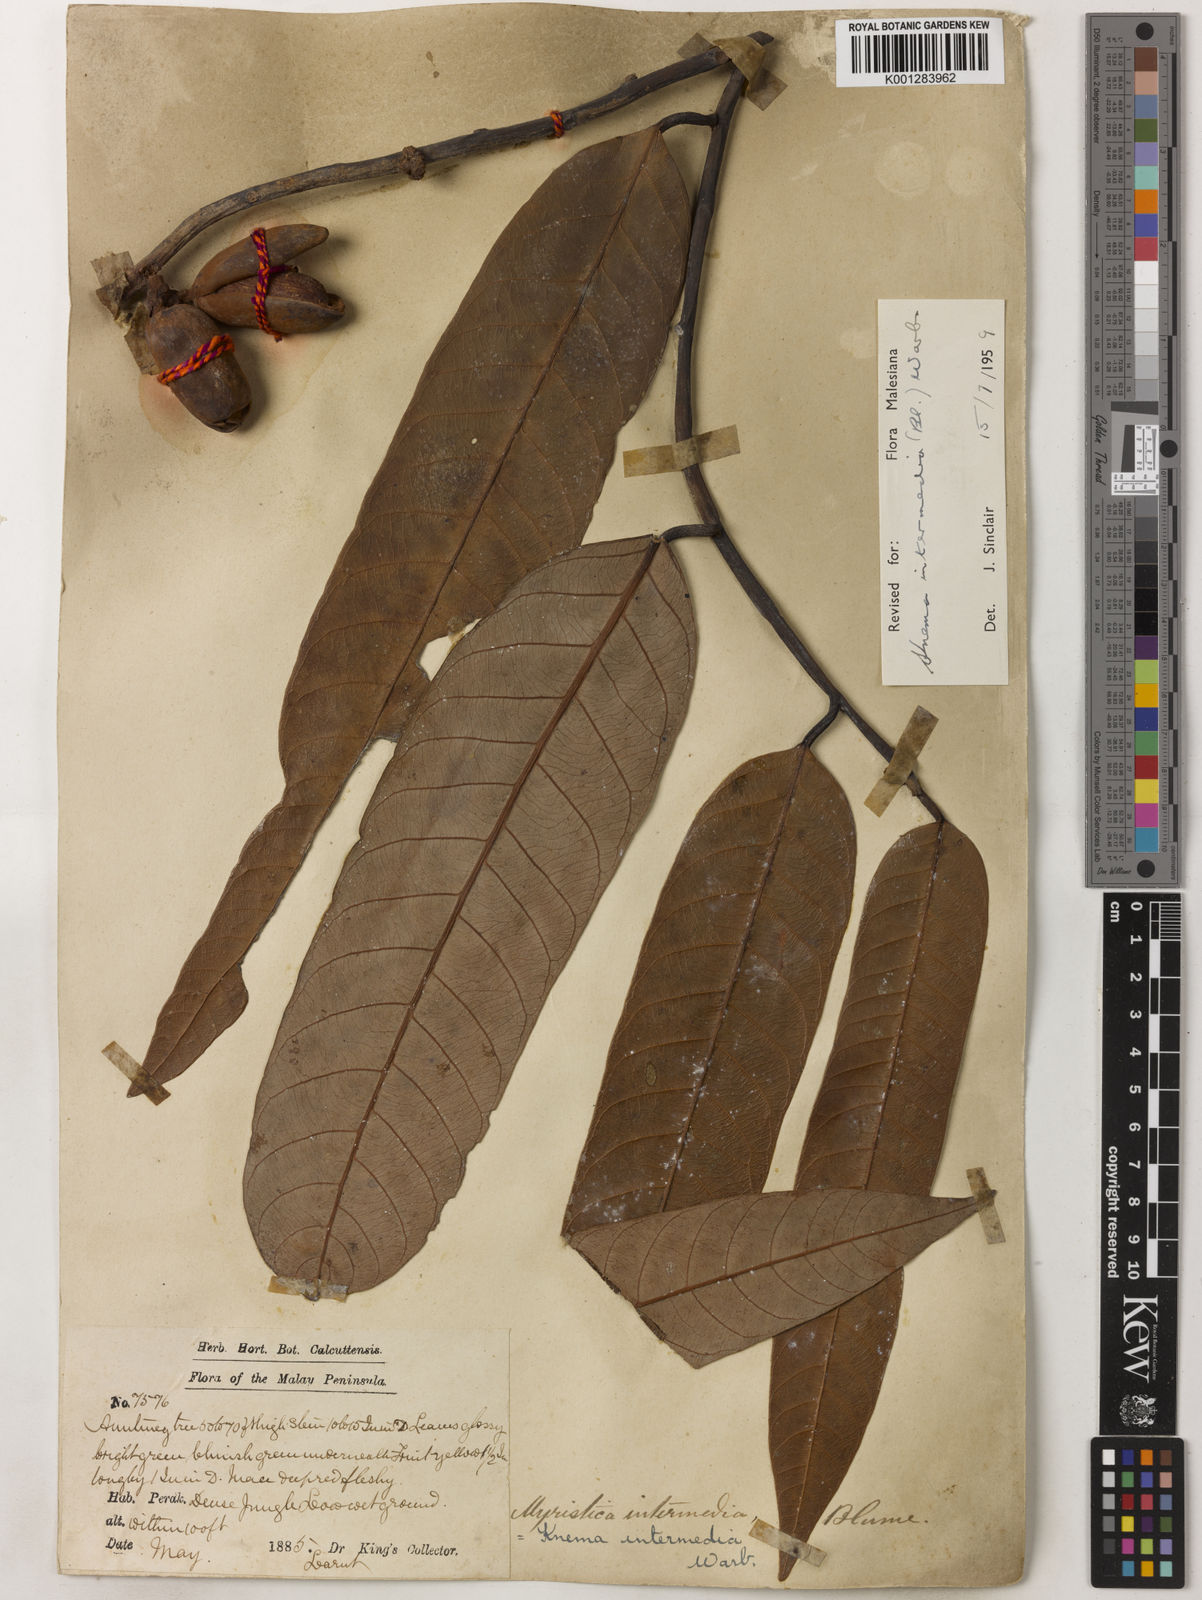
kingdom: Plantae
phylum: Tracheophyta
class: Magnoliopsida
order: Magnoliales
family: Myristicaceae
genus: Knema
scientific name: Knema intermedia
